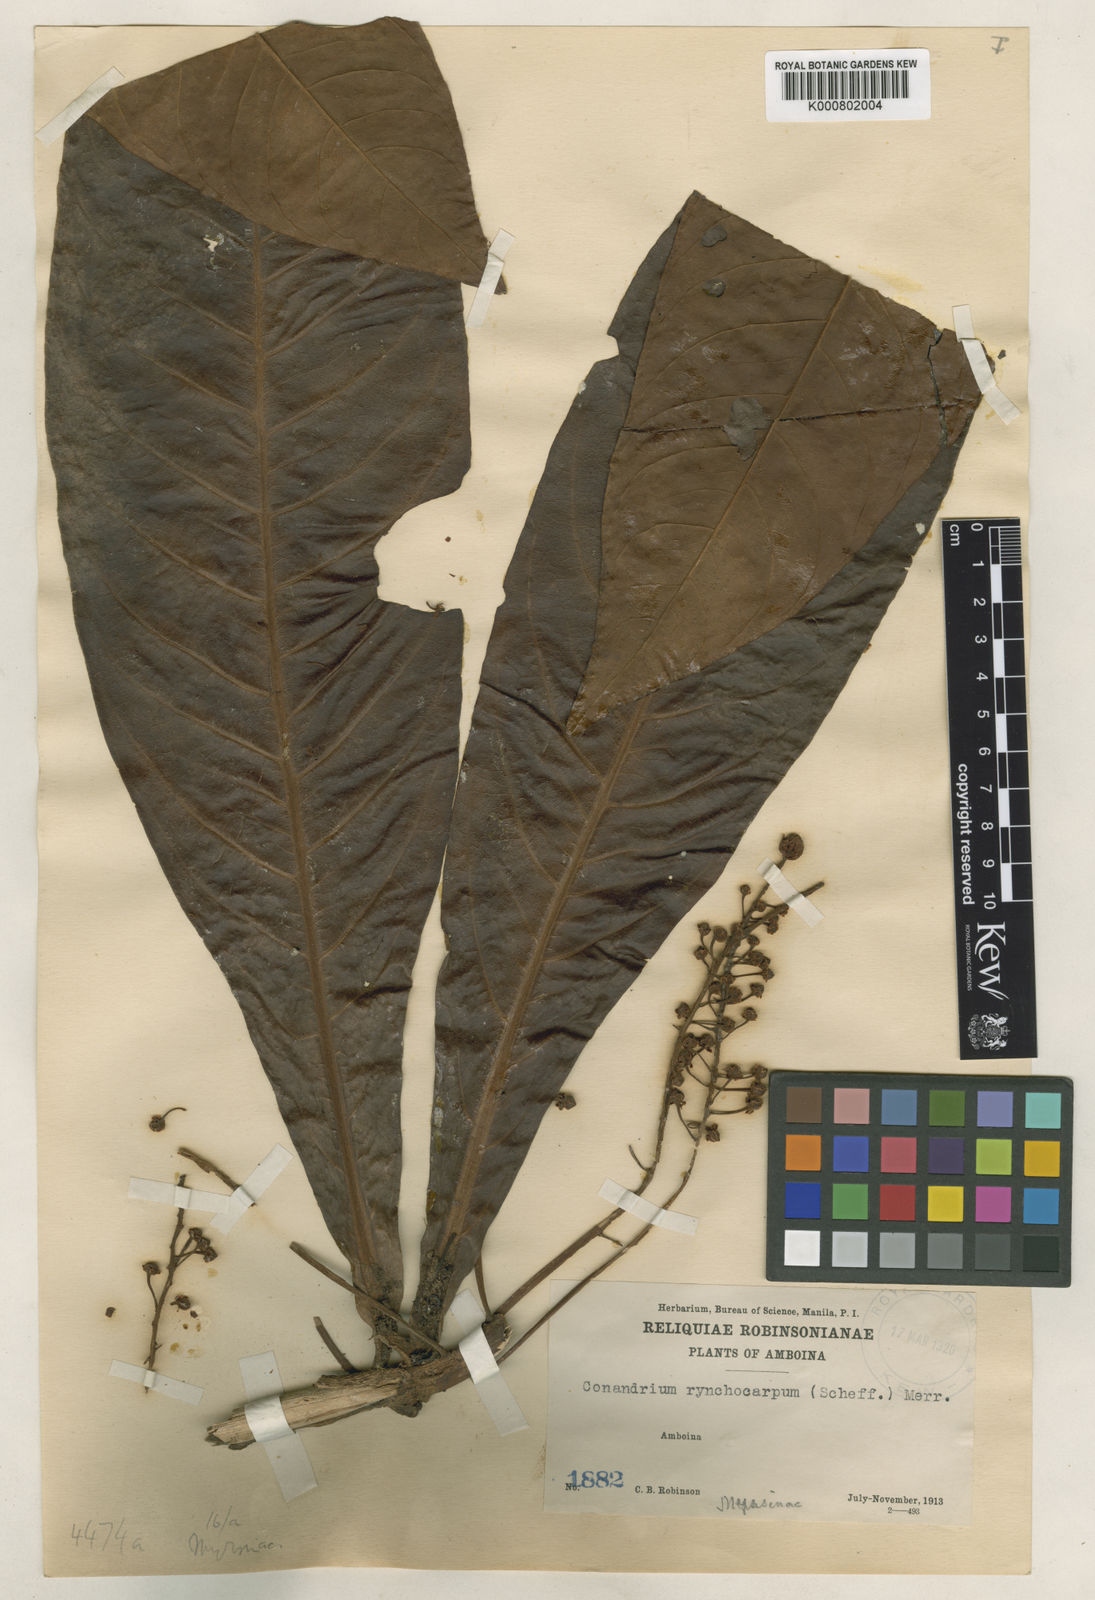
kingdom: Plantae
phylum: Tracheophyta
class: Magnoliopsida
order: Ericales
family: Primulaceae
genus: Conandrium
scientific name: Conandrium
